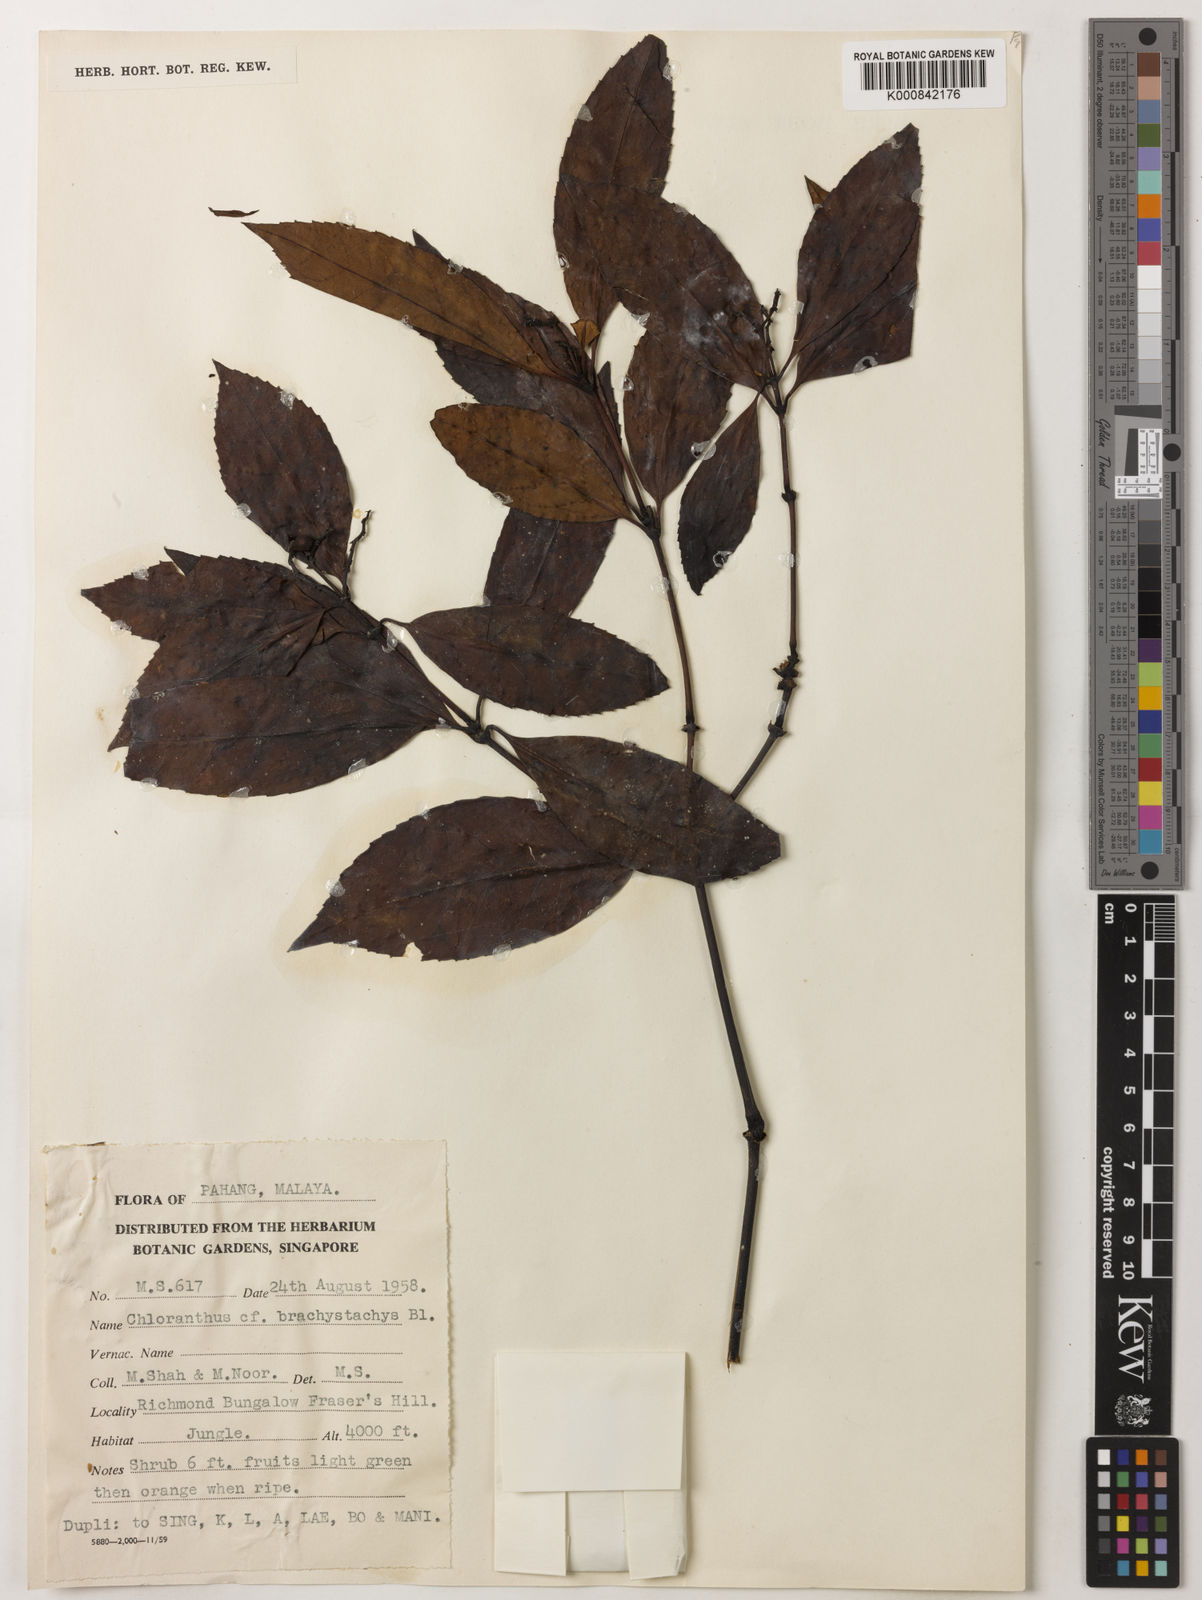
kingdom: Plantae
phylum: Tracheophyta
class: Magnoliopsida
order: Chloranthales
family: Chloranthaceae
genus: Sarcandra
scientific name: Sarcandra glabra
